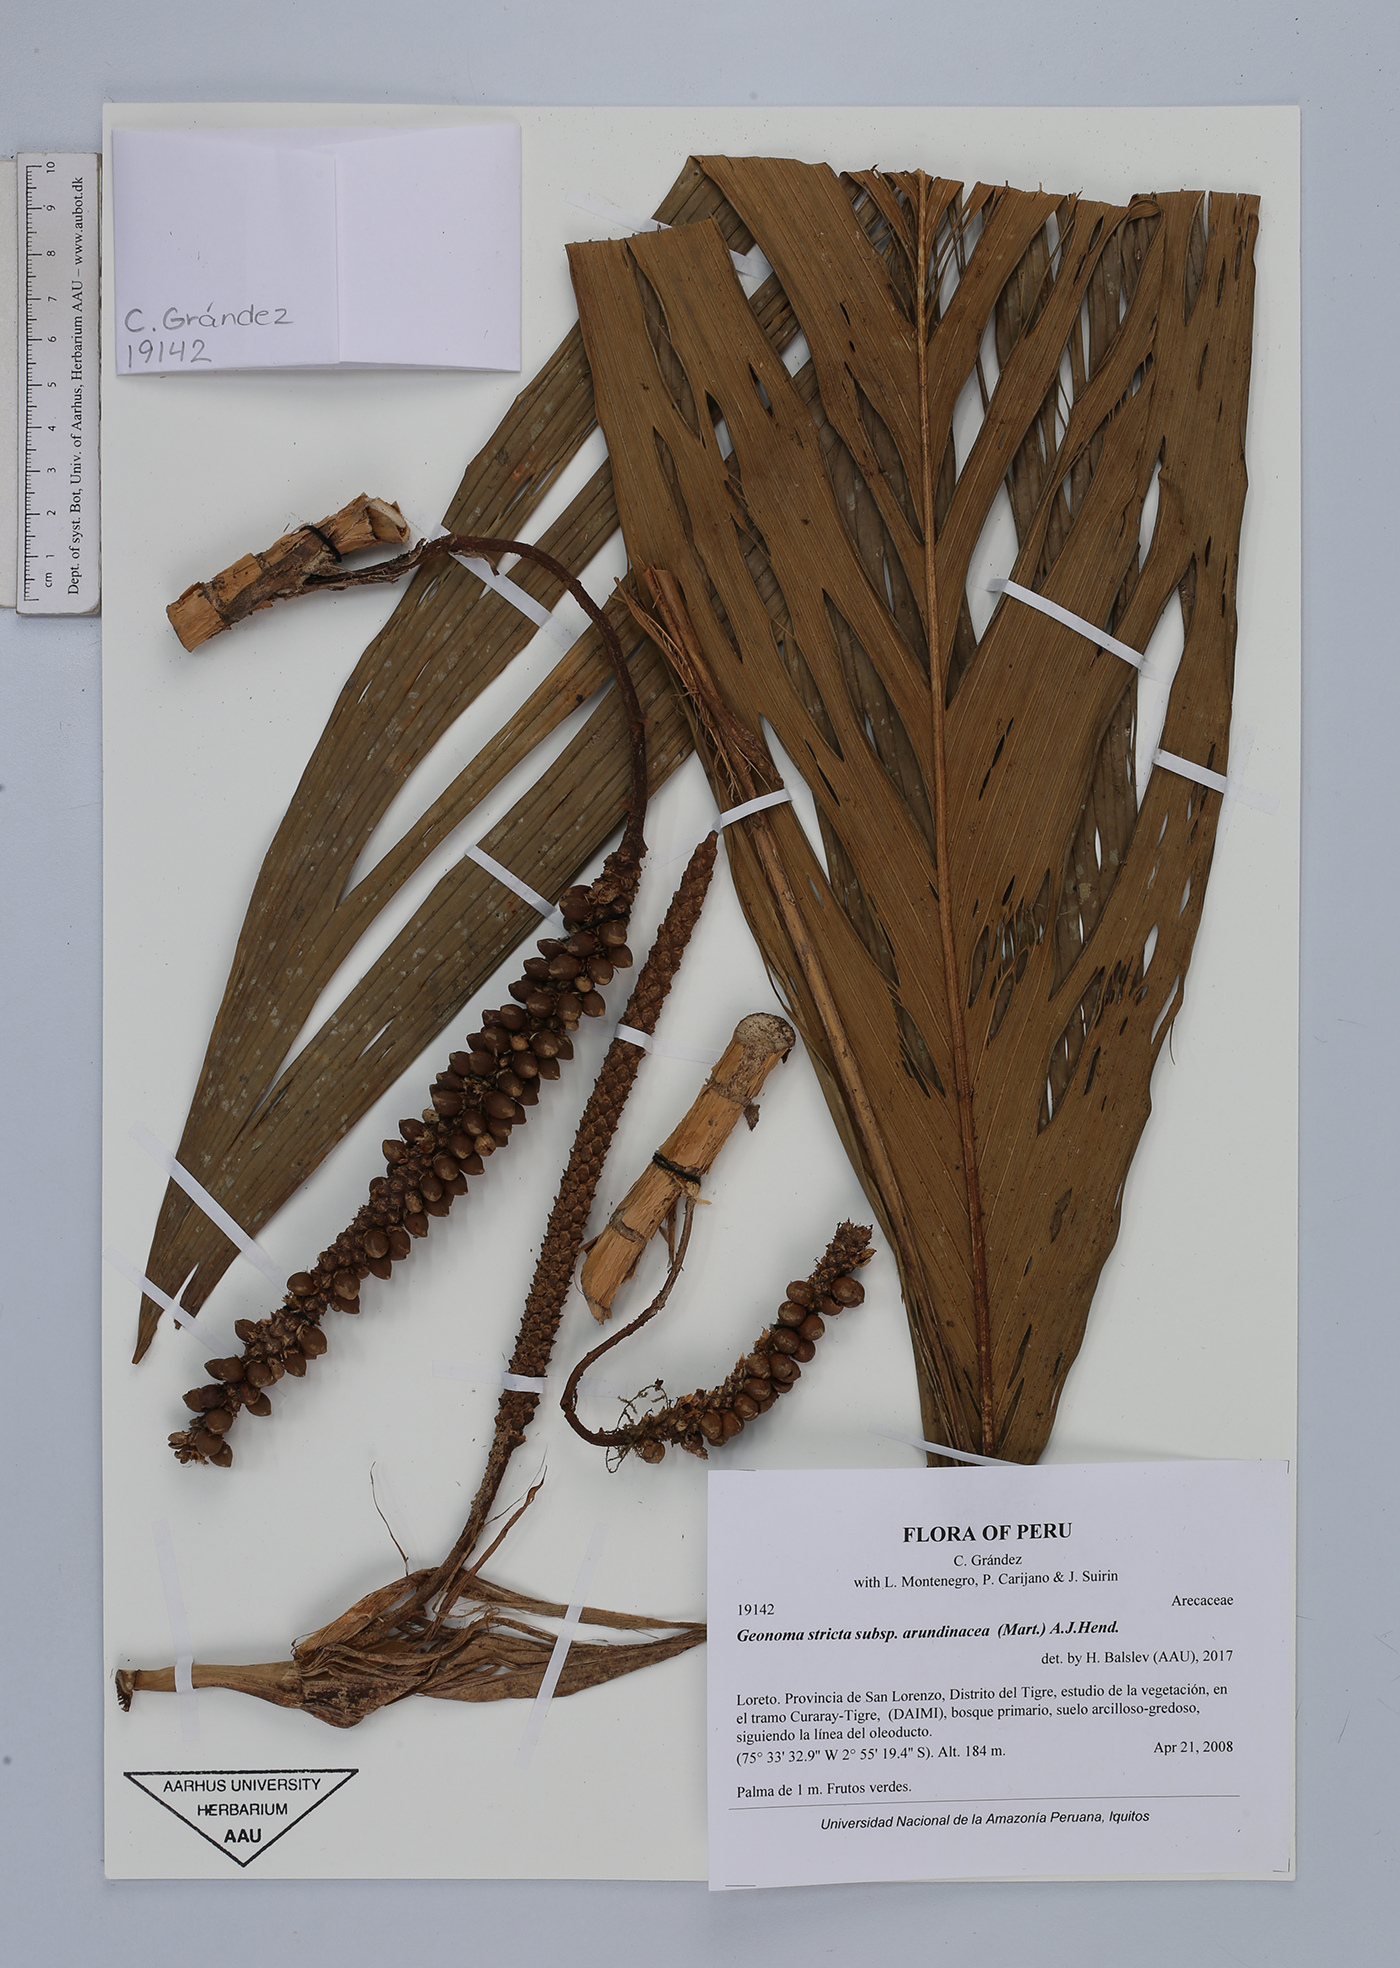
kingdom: Plantae
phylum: Tracheophyta
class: Liliopsida
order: Arecales
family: Arecaceae
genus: Geonoma
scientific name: Geonoma stricta
